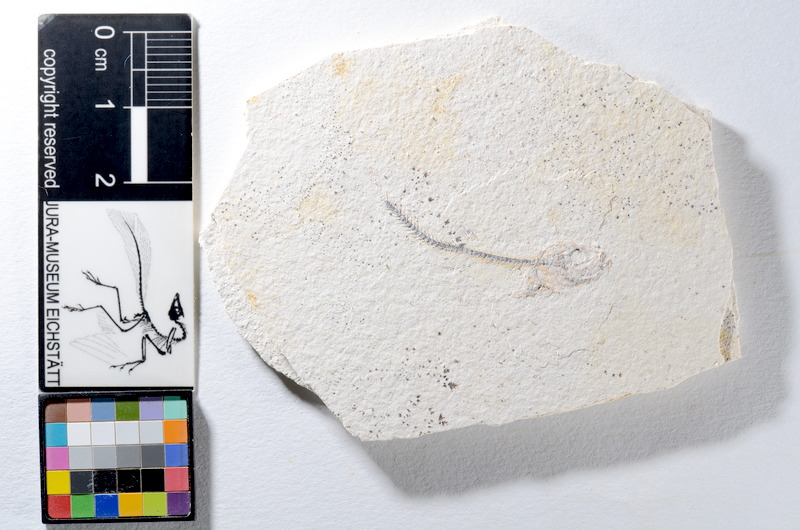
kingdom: Animalia
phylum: Chordata
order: Salmoniformes
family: Orthogonikleithridae
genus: Orthogonikleithrus
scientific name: Orthogonikleithrus hoelli
